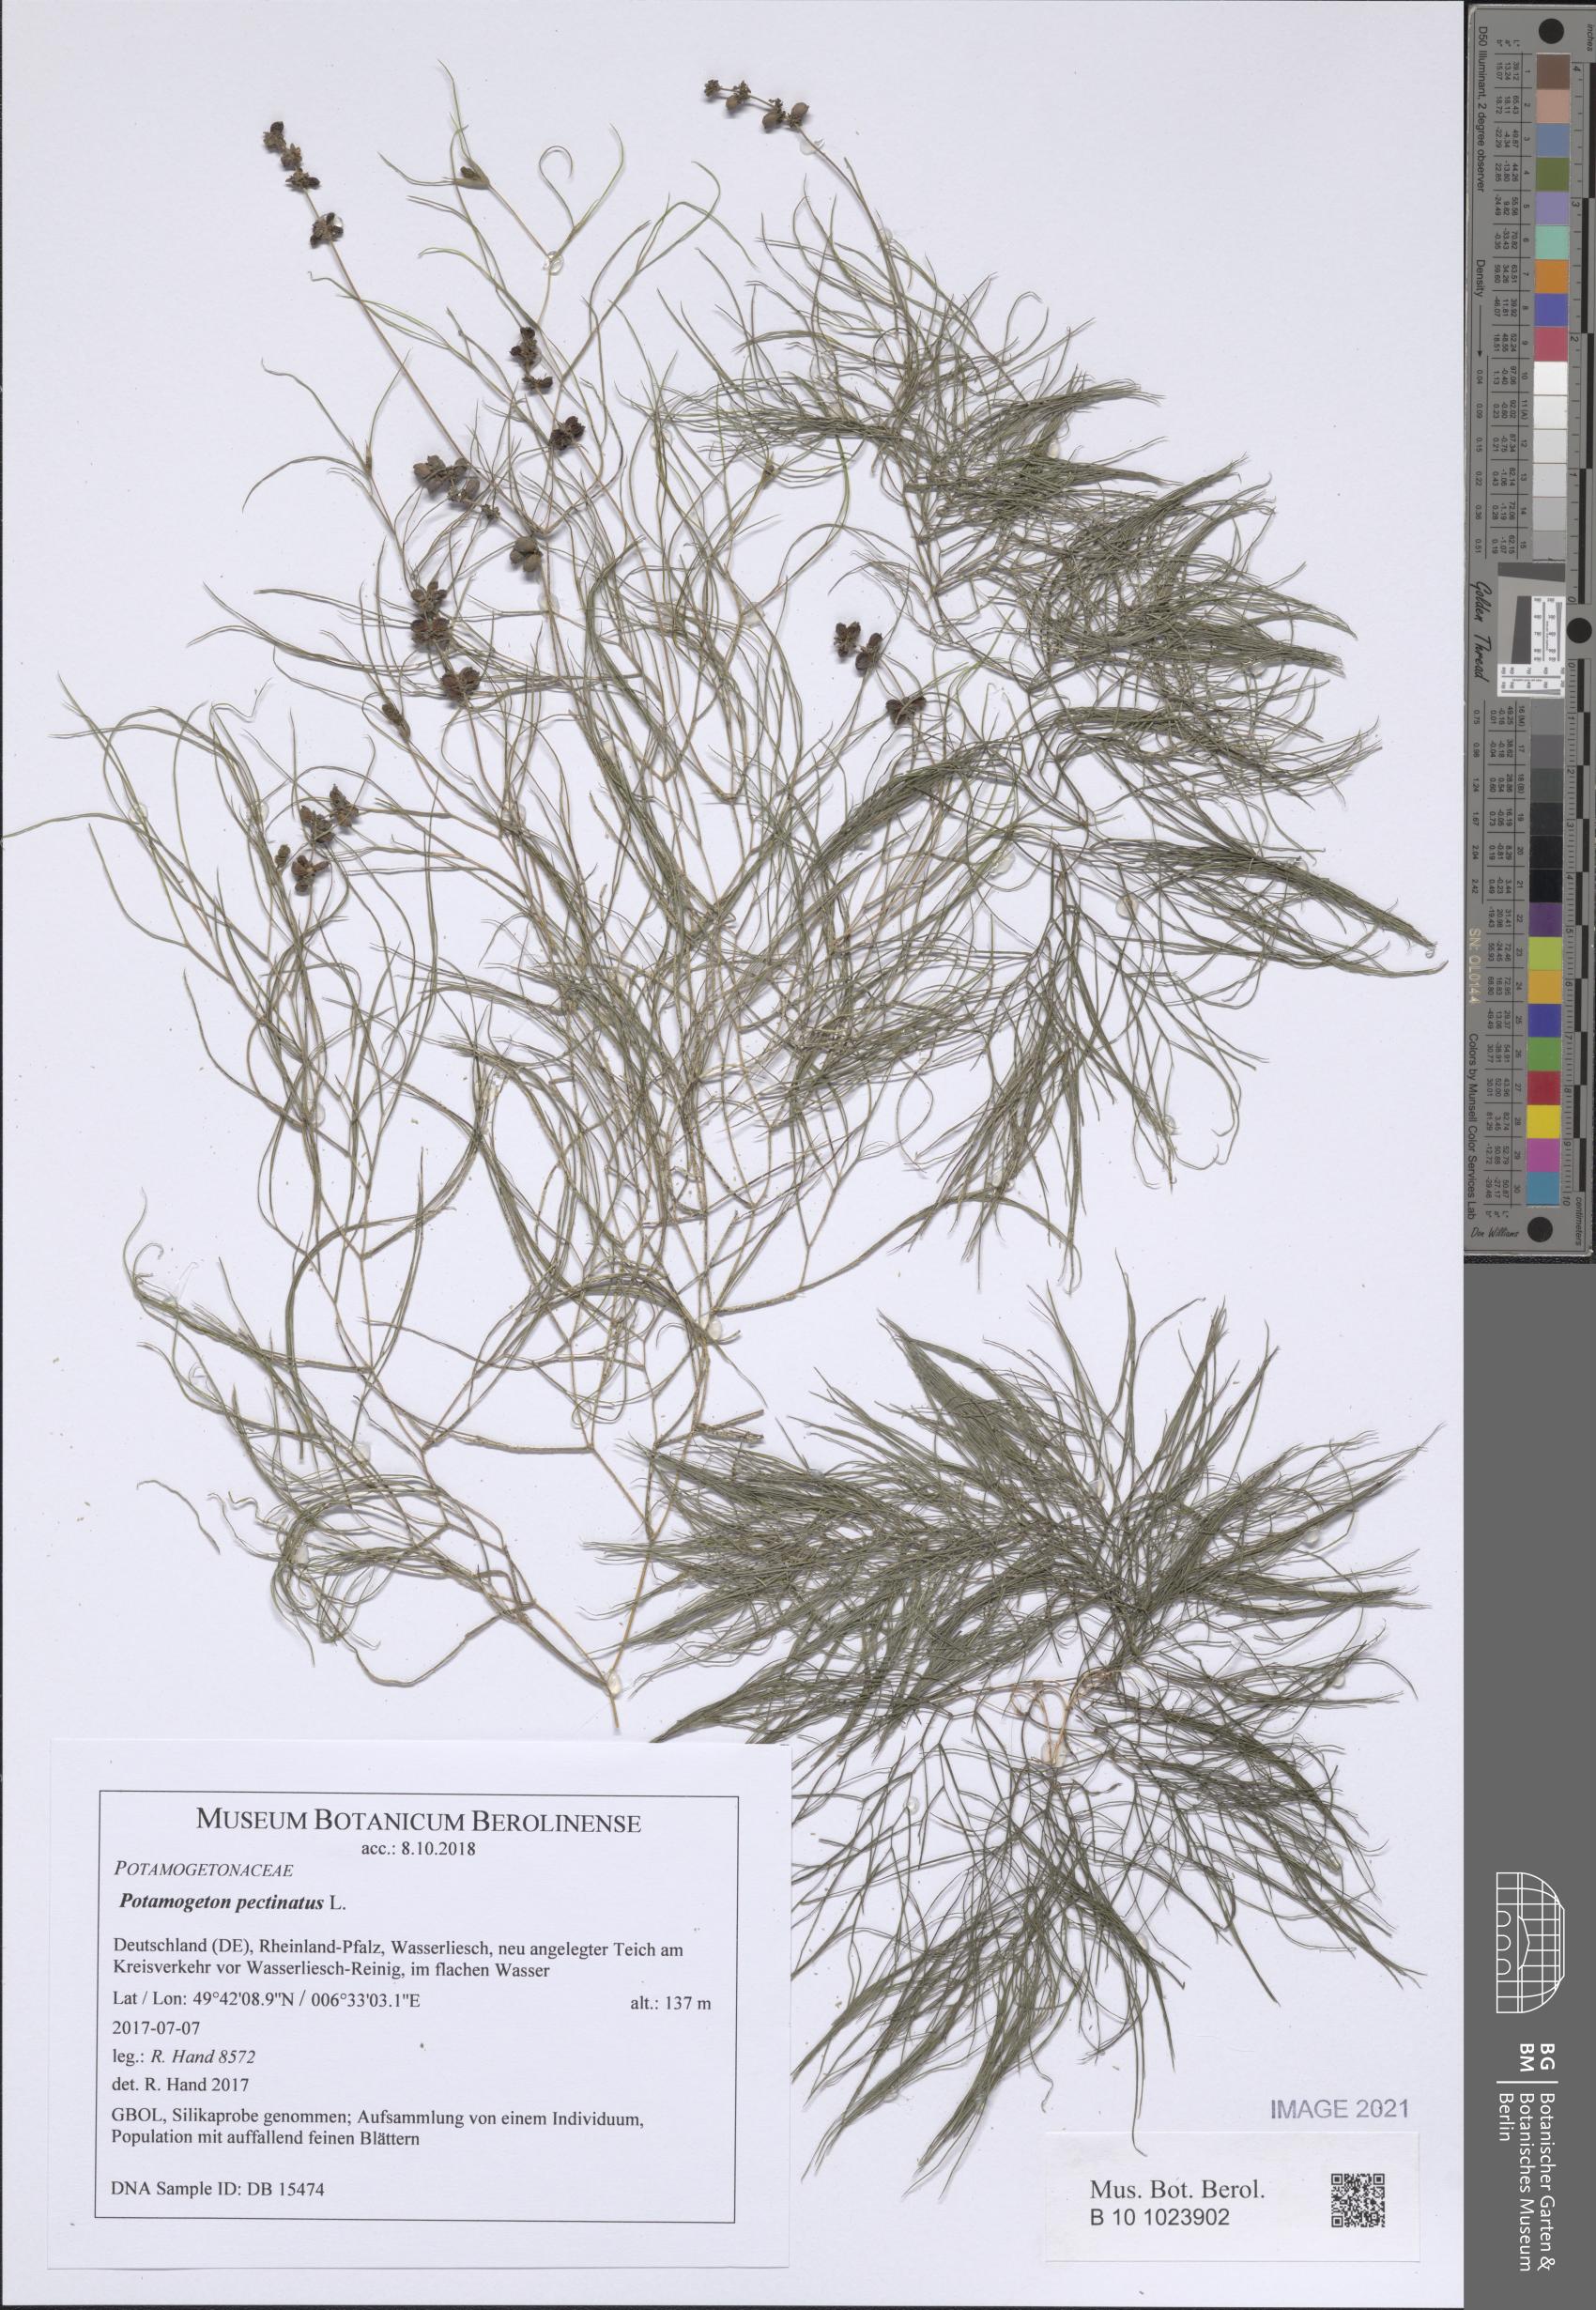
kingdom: Plantae
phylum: Tracheophyta
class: Liliopsida
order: Alismatales
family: Potamogetonaceae
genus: Stuckenia
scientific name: Stuckenia pectinata
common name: Sago pondweed
